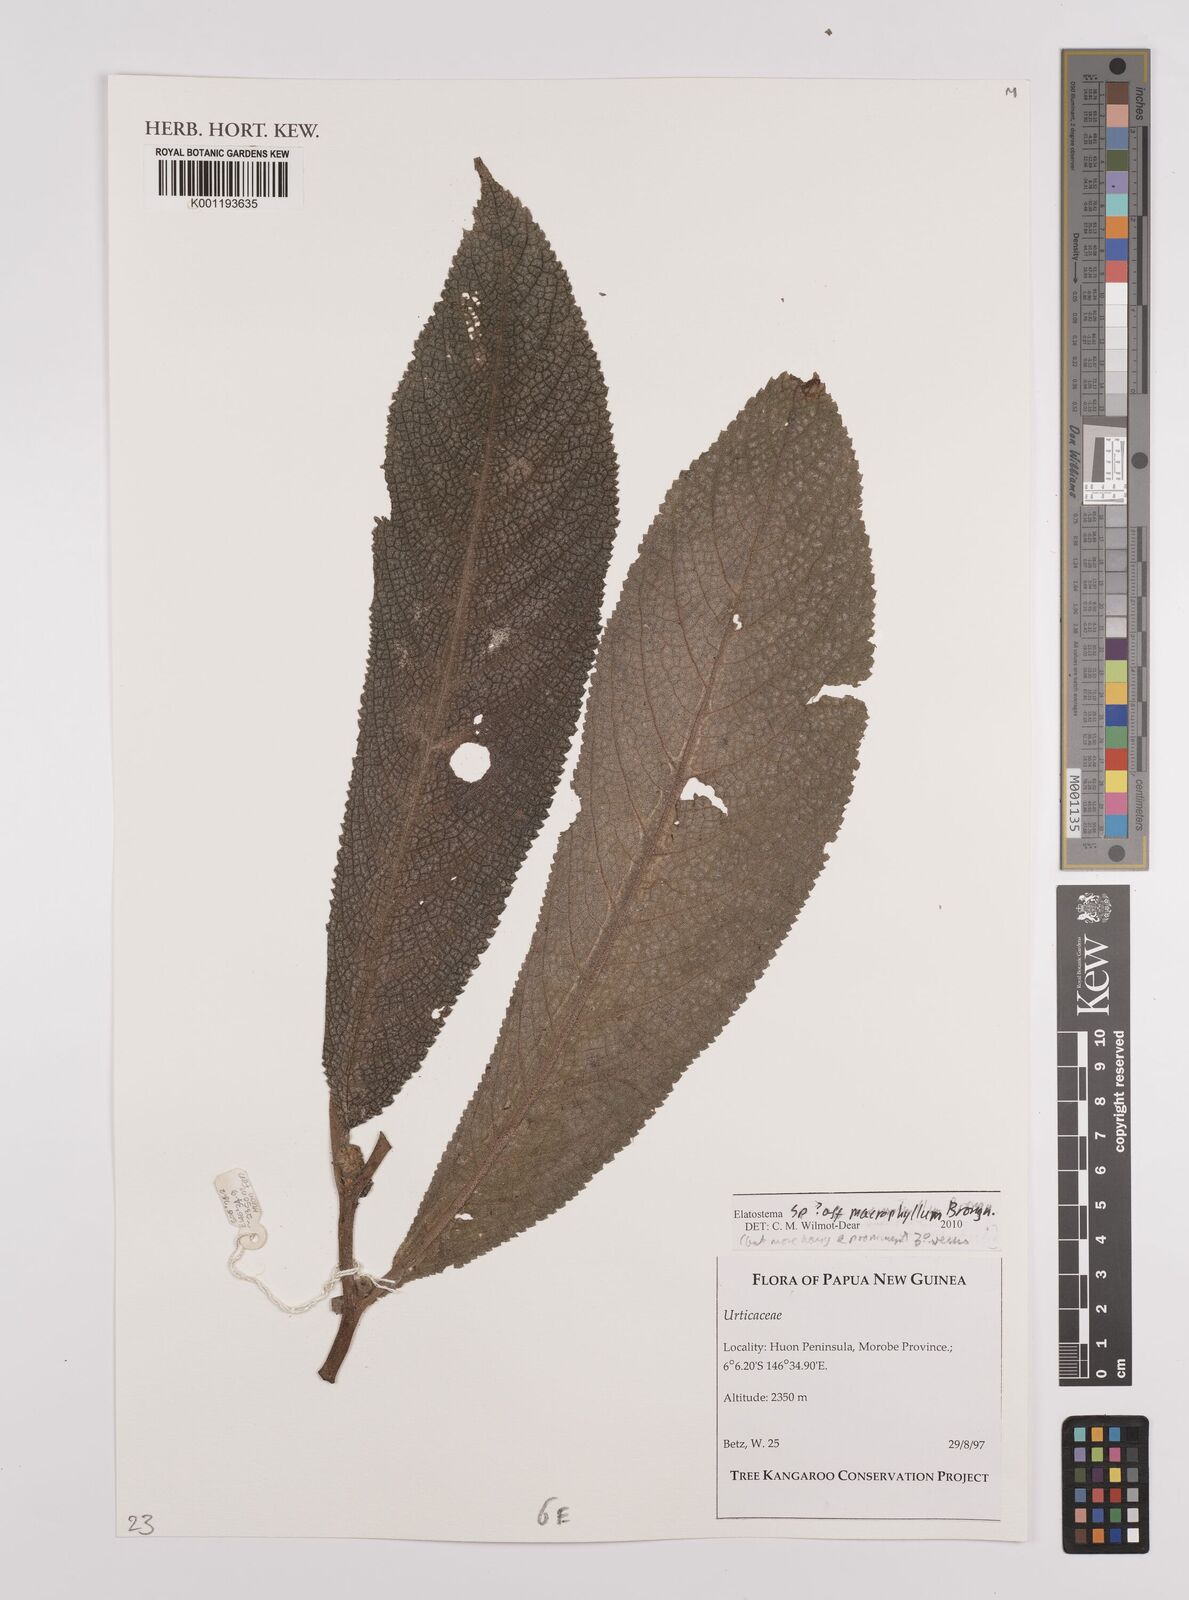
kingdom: Plantae
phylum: Tracheophyta
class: Magnoliopsida
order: Rosales
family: Urticaceae
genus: Elatostema
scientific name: Elatostema macrophyllum
